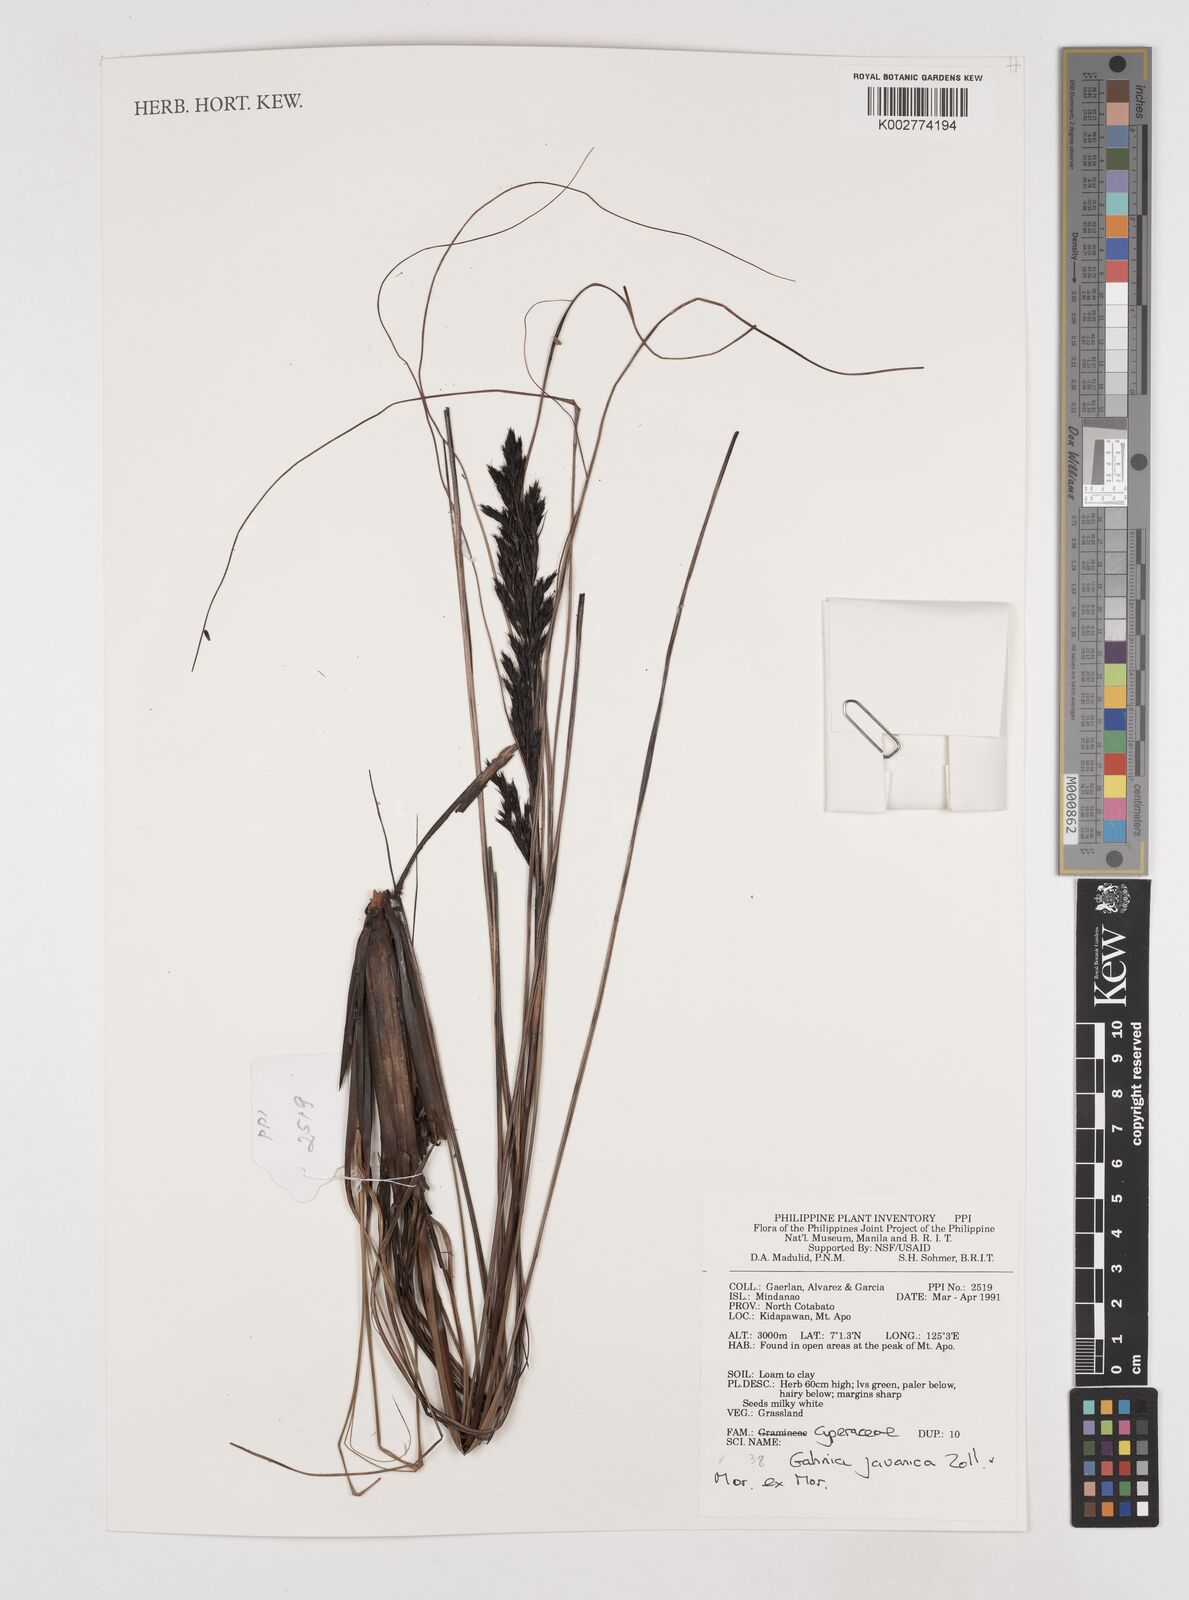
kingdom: Plantae
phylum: Tracheophyta
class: Liliopsida
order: Poales
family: Cyperaceae
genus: Gahnia
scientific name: Gahnia javanica
